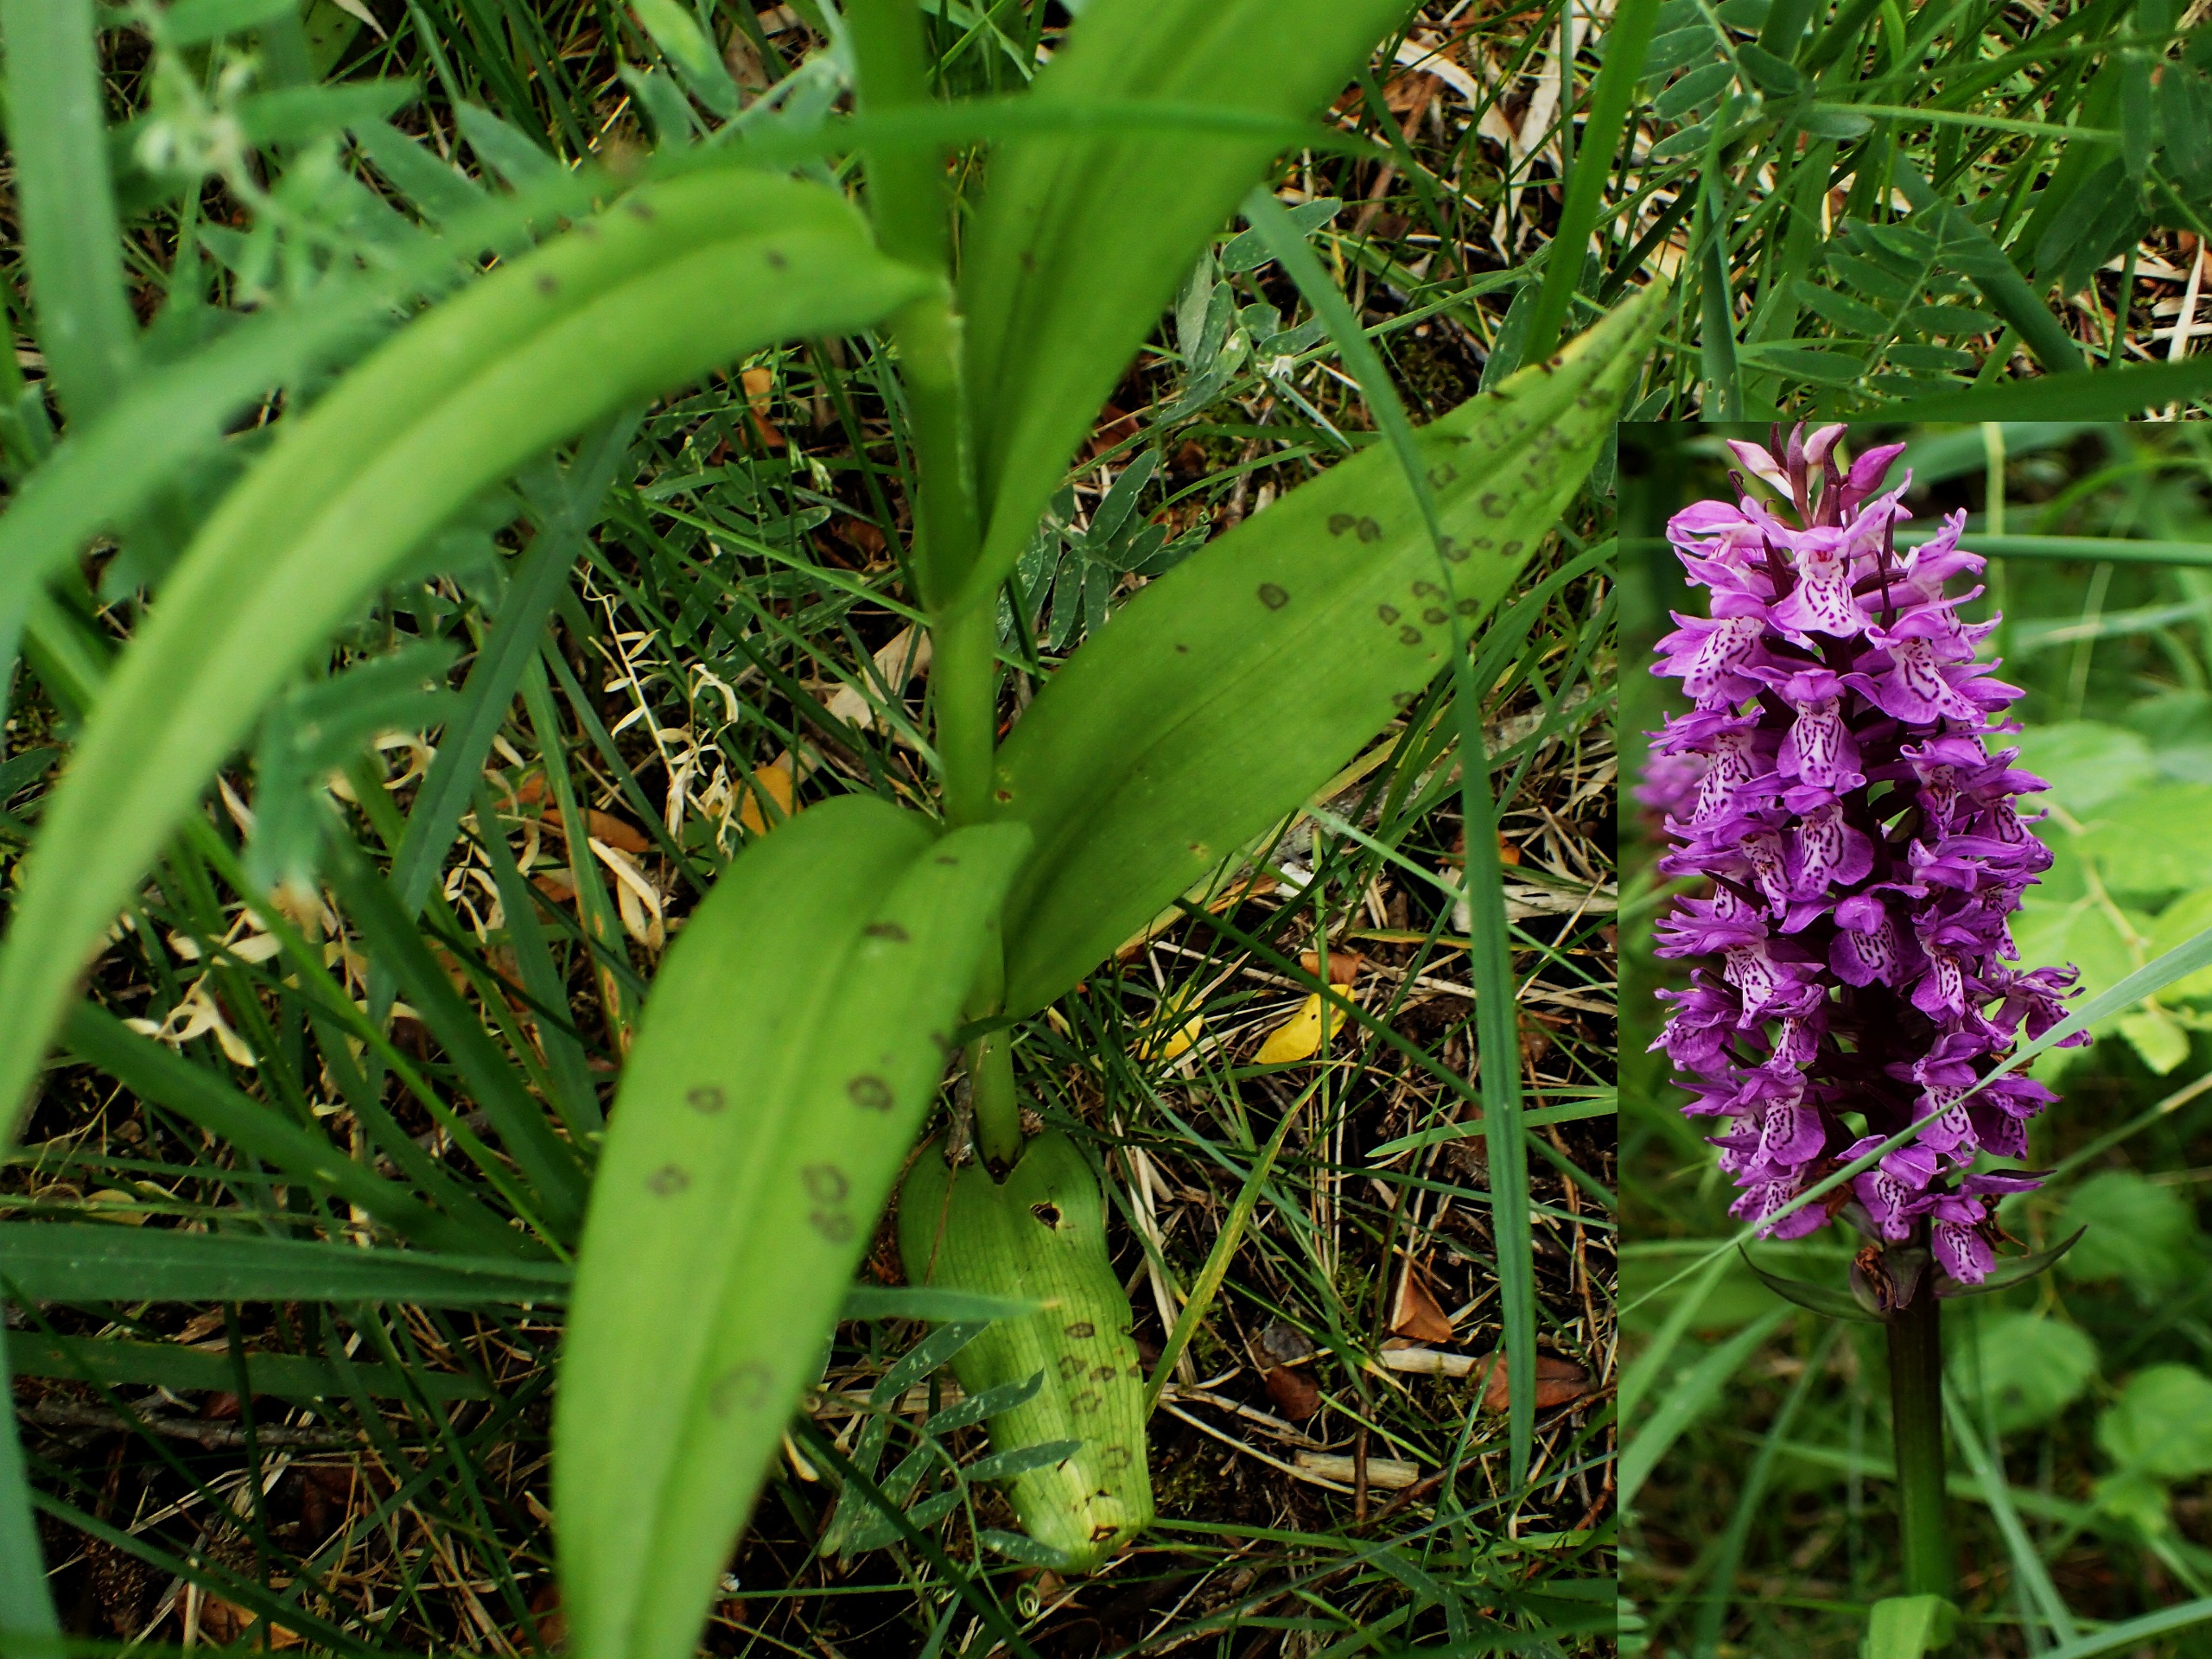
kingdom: Plantae
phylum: Tracheophyta
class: Liliopsida
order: Asparagales
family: Orchidaceae
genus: Dactylorhiza
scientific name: Dactylorhiza majalis
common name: Ringplettet gøgeurt
